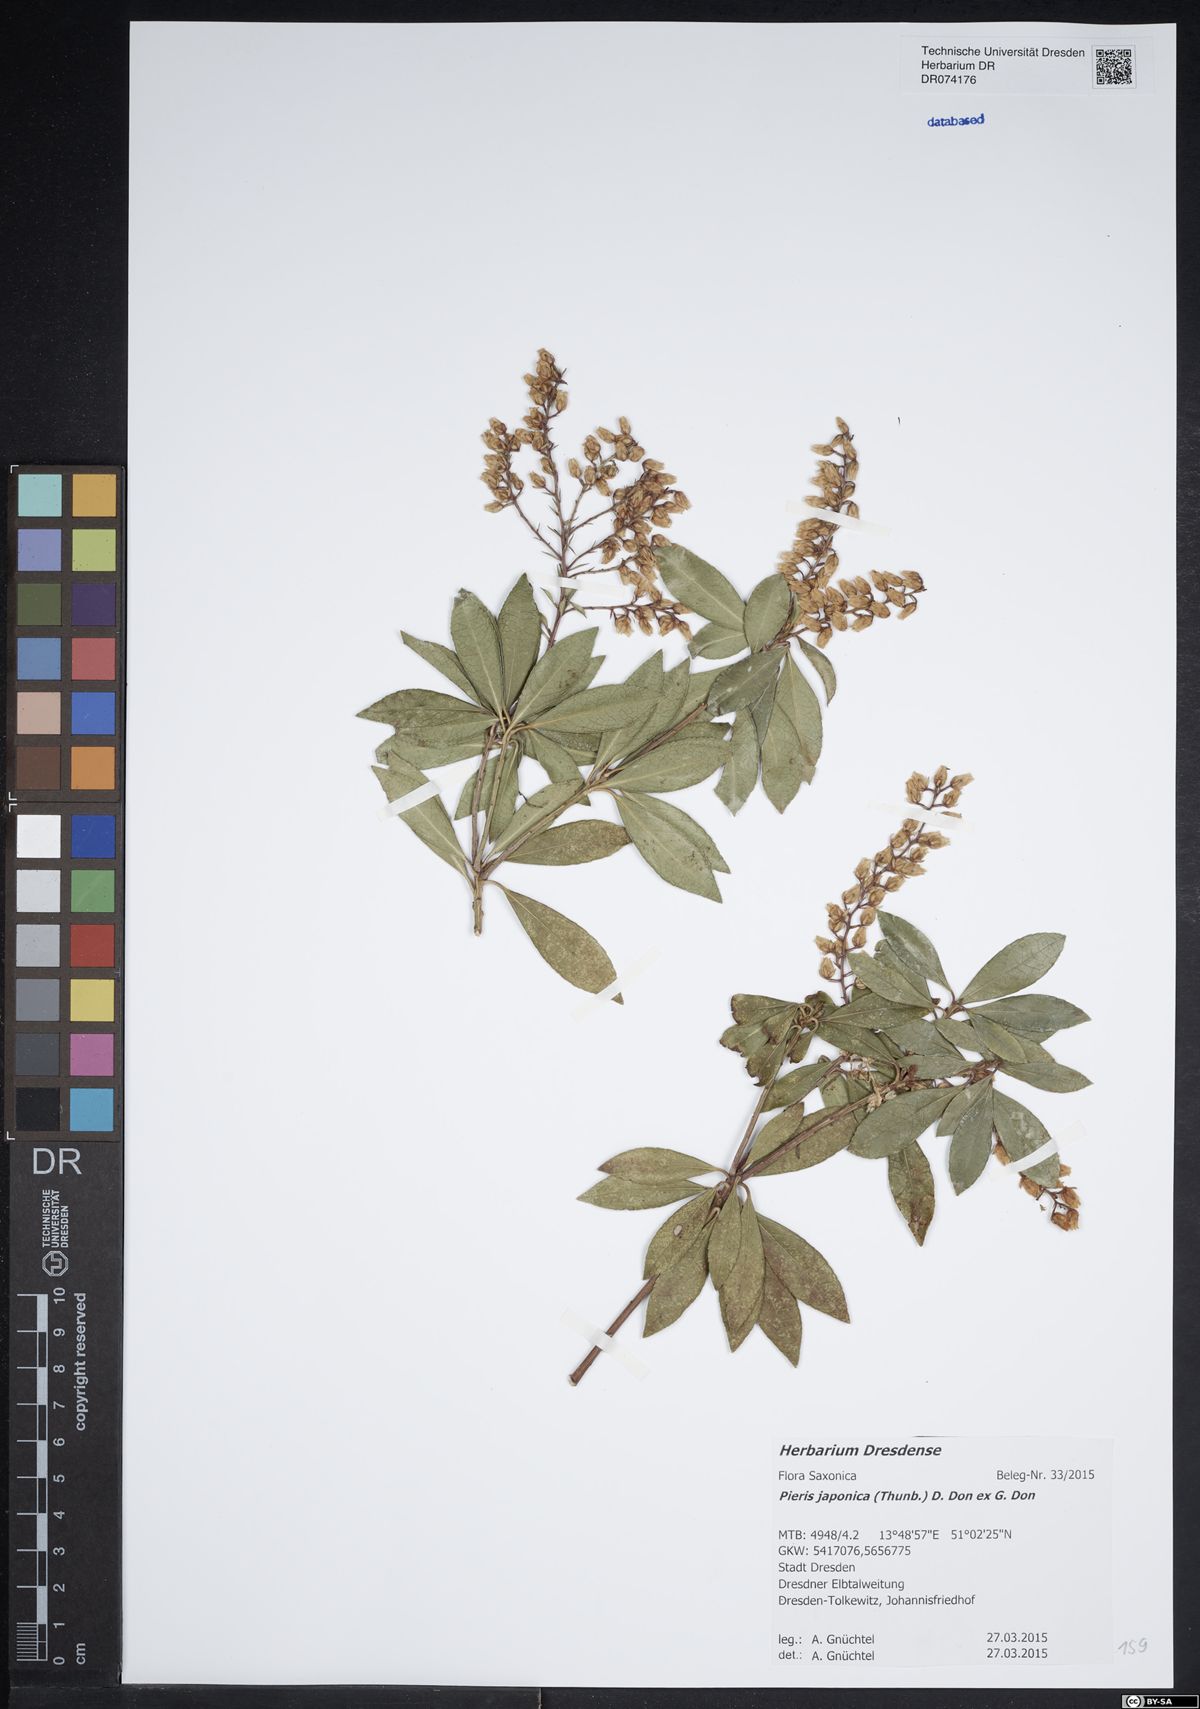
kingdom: Plantae
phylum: Tracheophyta
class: Magnoliopsida
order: Ericales
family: Ericaceae
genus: Pieris
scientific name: Pieris japonica
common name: Japanese pieris
